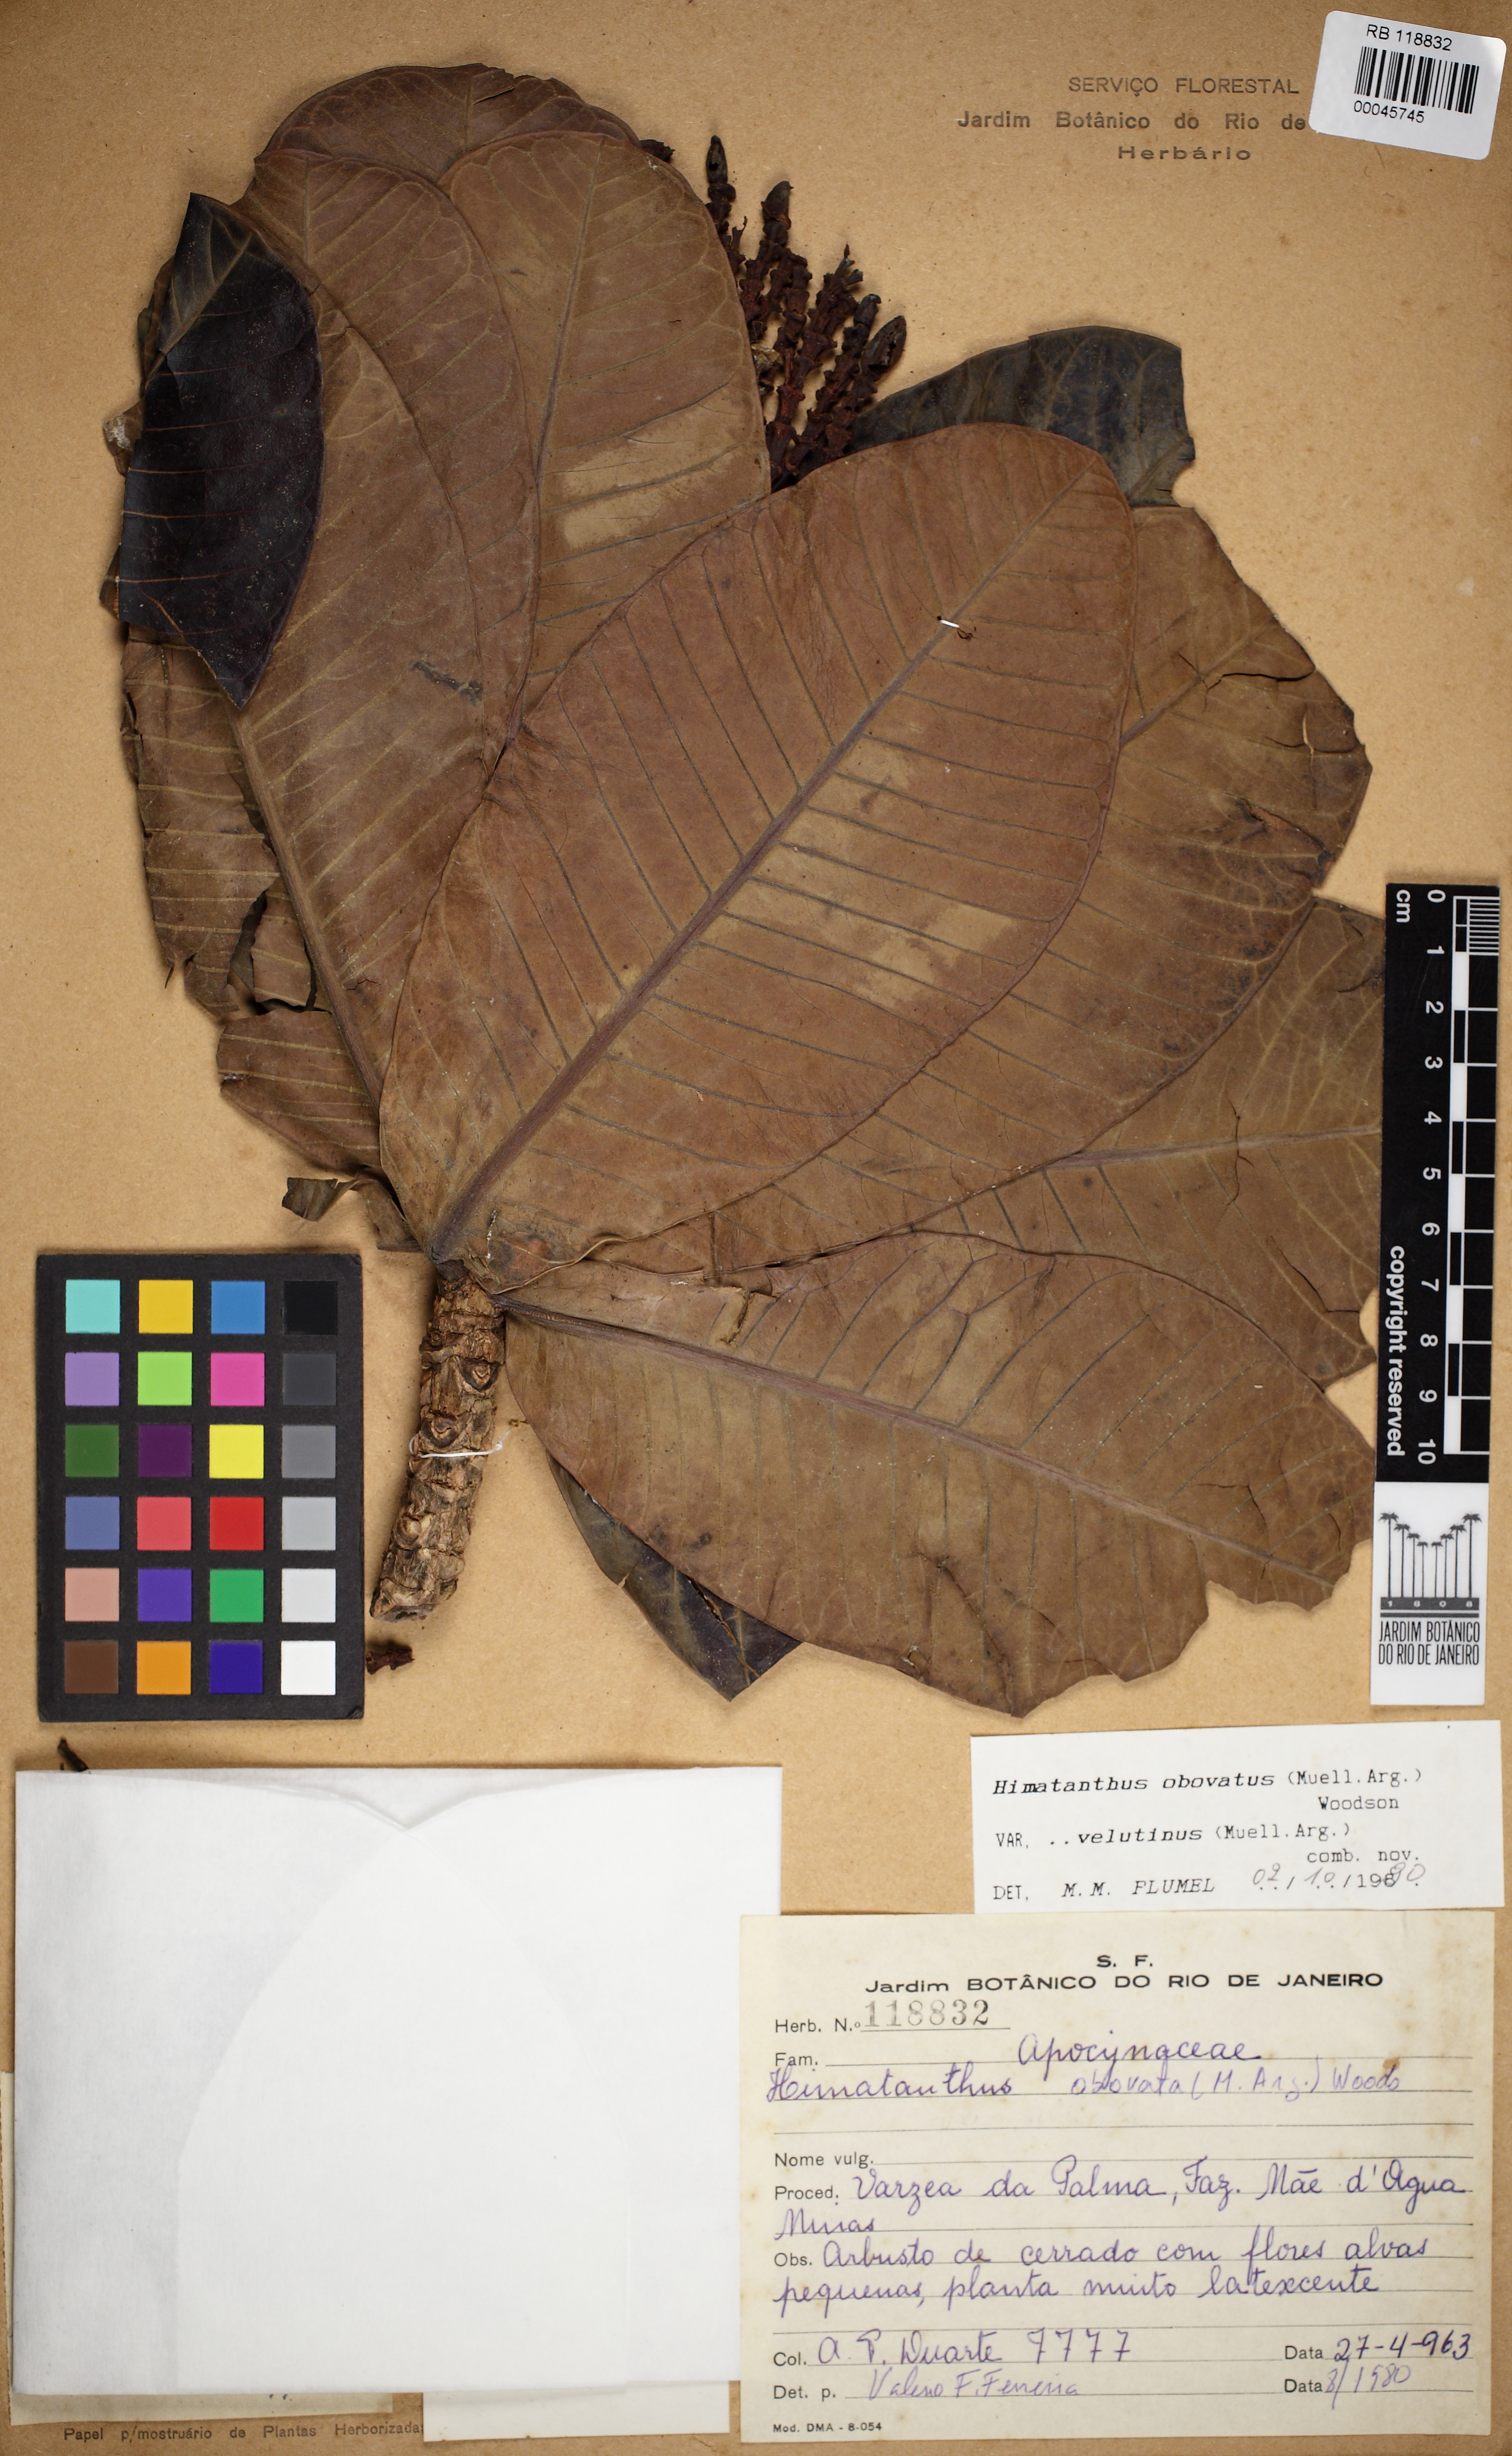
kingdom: Plantae
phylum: Tracheophyta
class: Magnoliopsida
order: Gentianales
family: Apocynaceae
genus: Himatanthus
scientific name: Himatanthus obovatus
